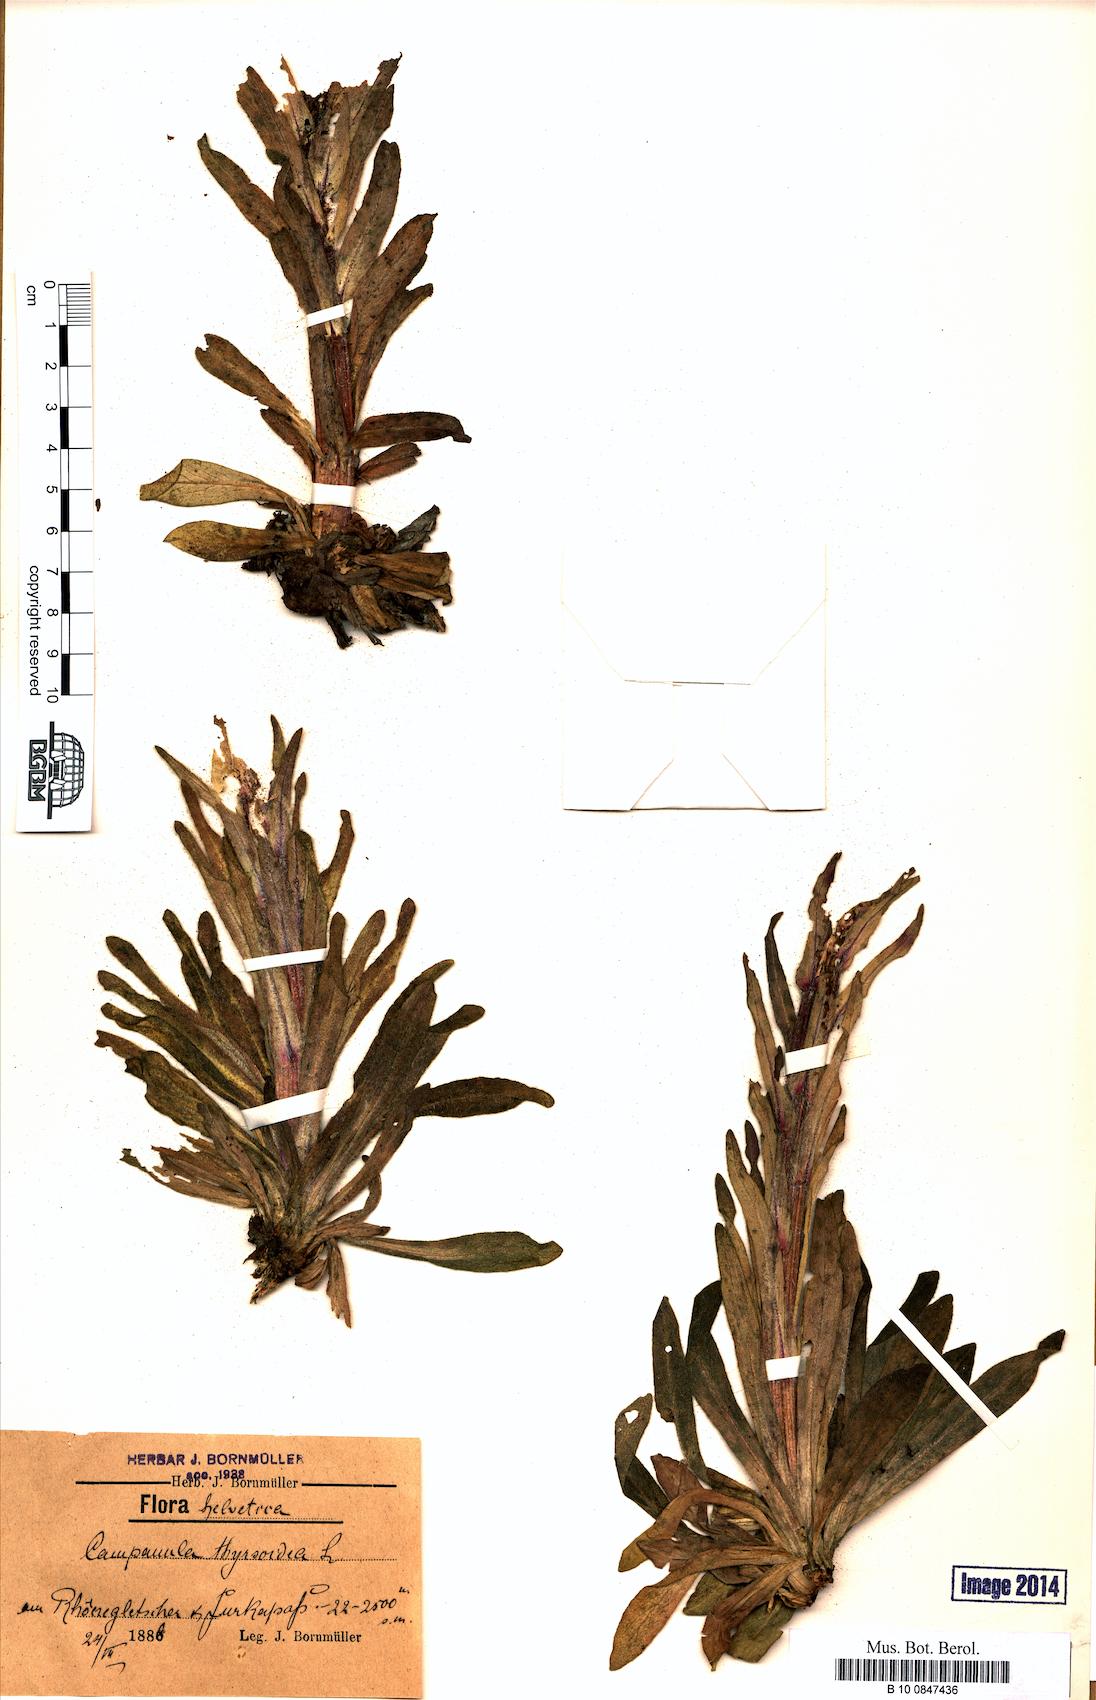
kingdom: Plantae
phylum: Tracheophyta
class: Magnoliopsida
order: Asterales
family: Campanulaceae
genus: Campanula
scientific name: Campanula thyrsoides
